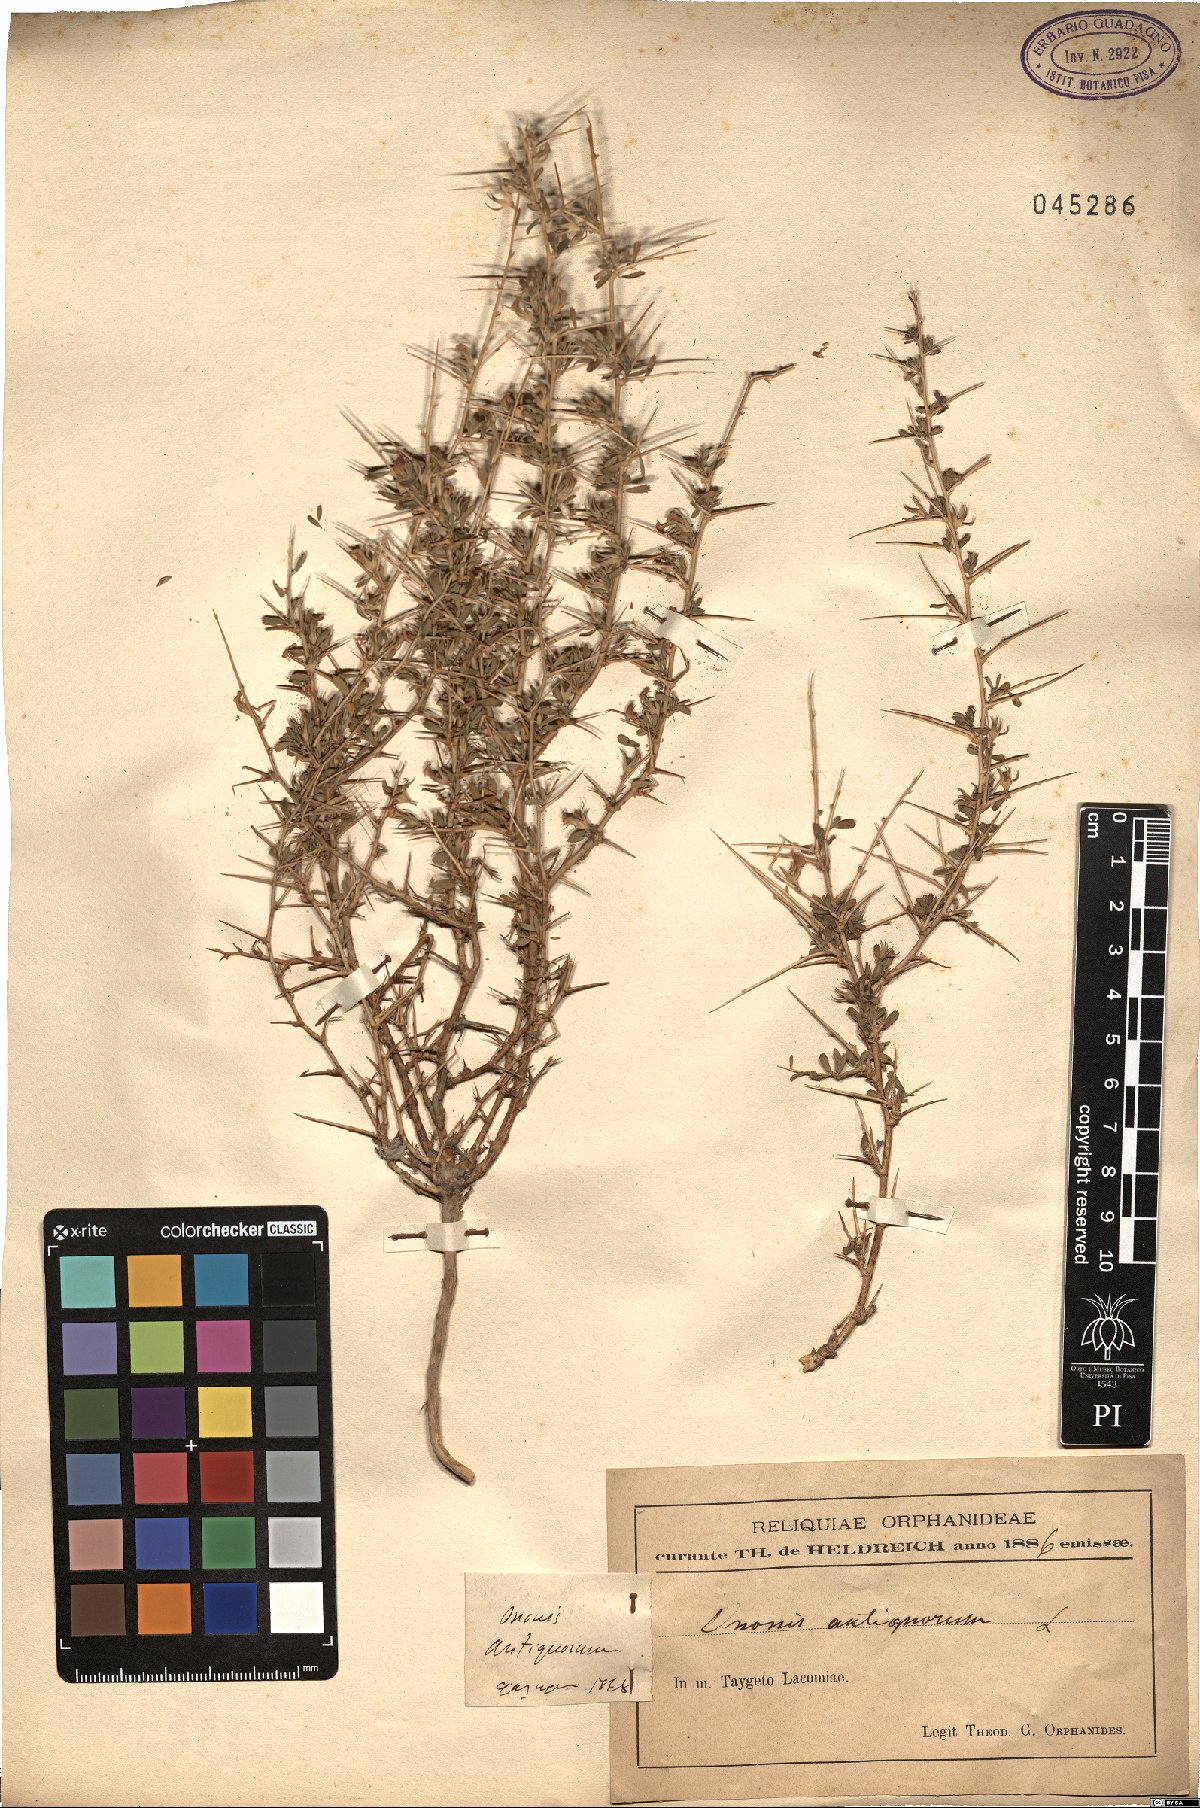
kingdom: Plantae
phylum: Tracheophyta
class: Magnoliopsida
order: Fabales
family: Fabaceae
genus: Ononis
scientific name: Ononis spinosa
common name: Spiny restharrow
